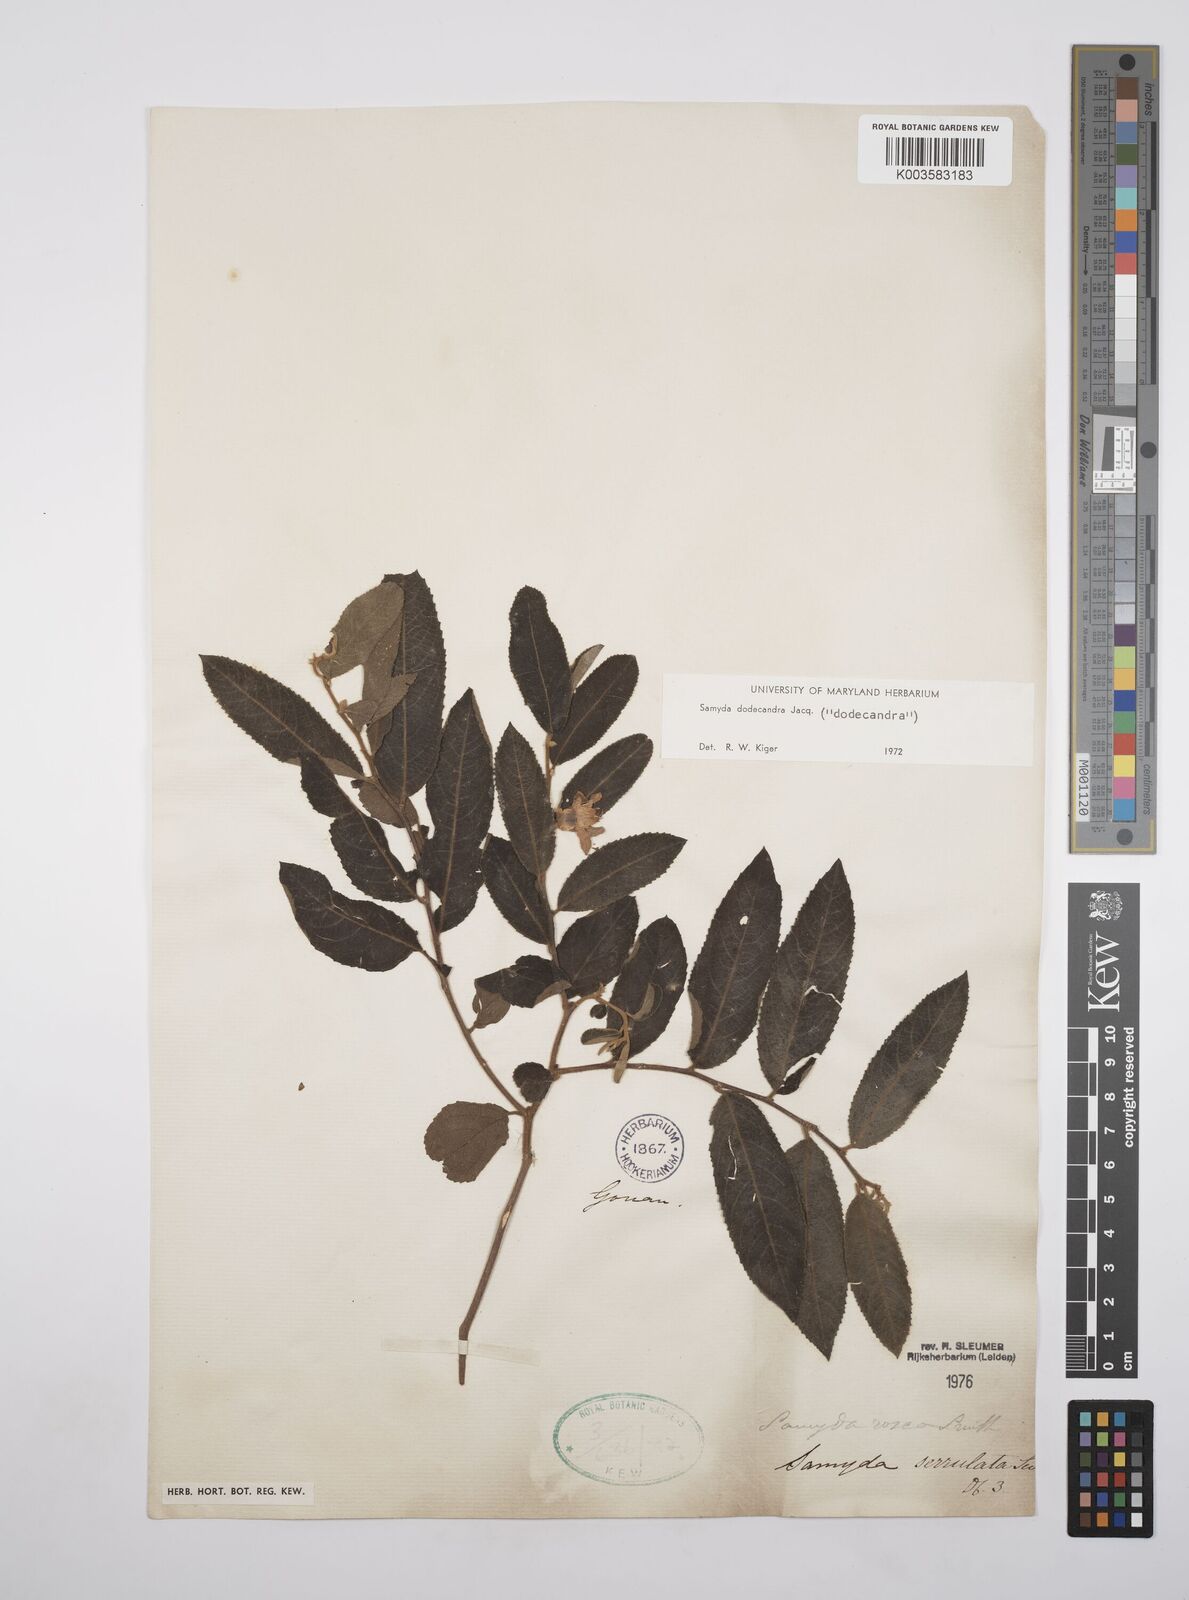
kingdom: Plantae
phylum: Tracheophyta
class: Magnoliopsida
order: Malpighiales
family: Salicaceae
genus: Casearia
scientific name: Casearia dodecandra
